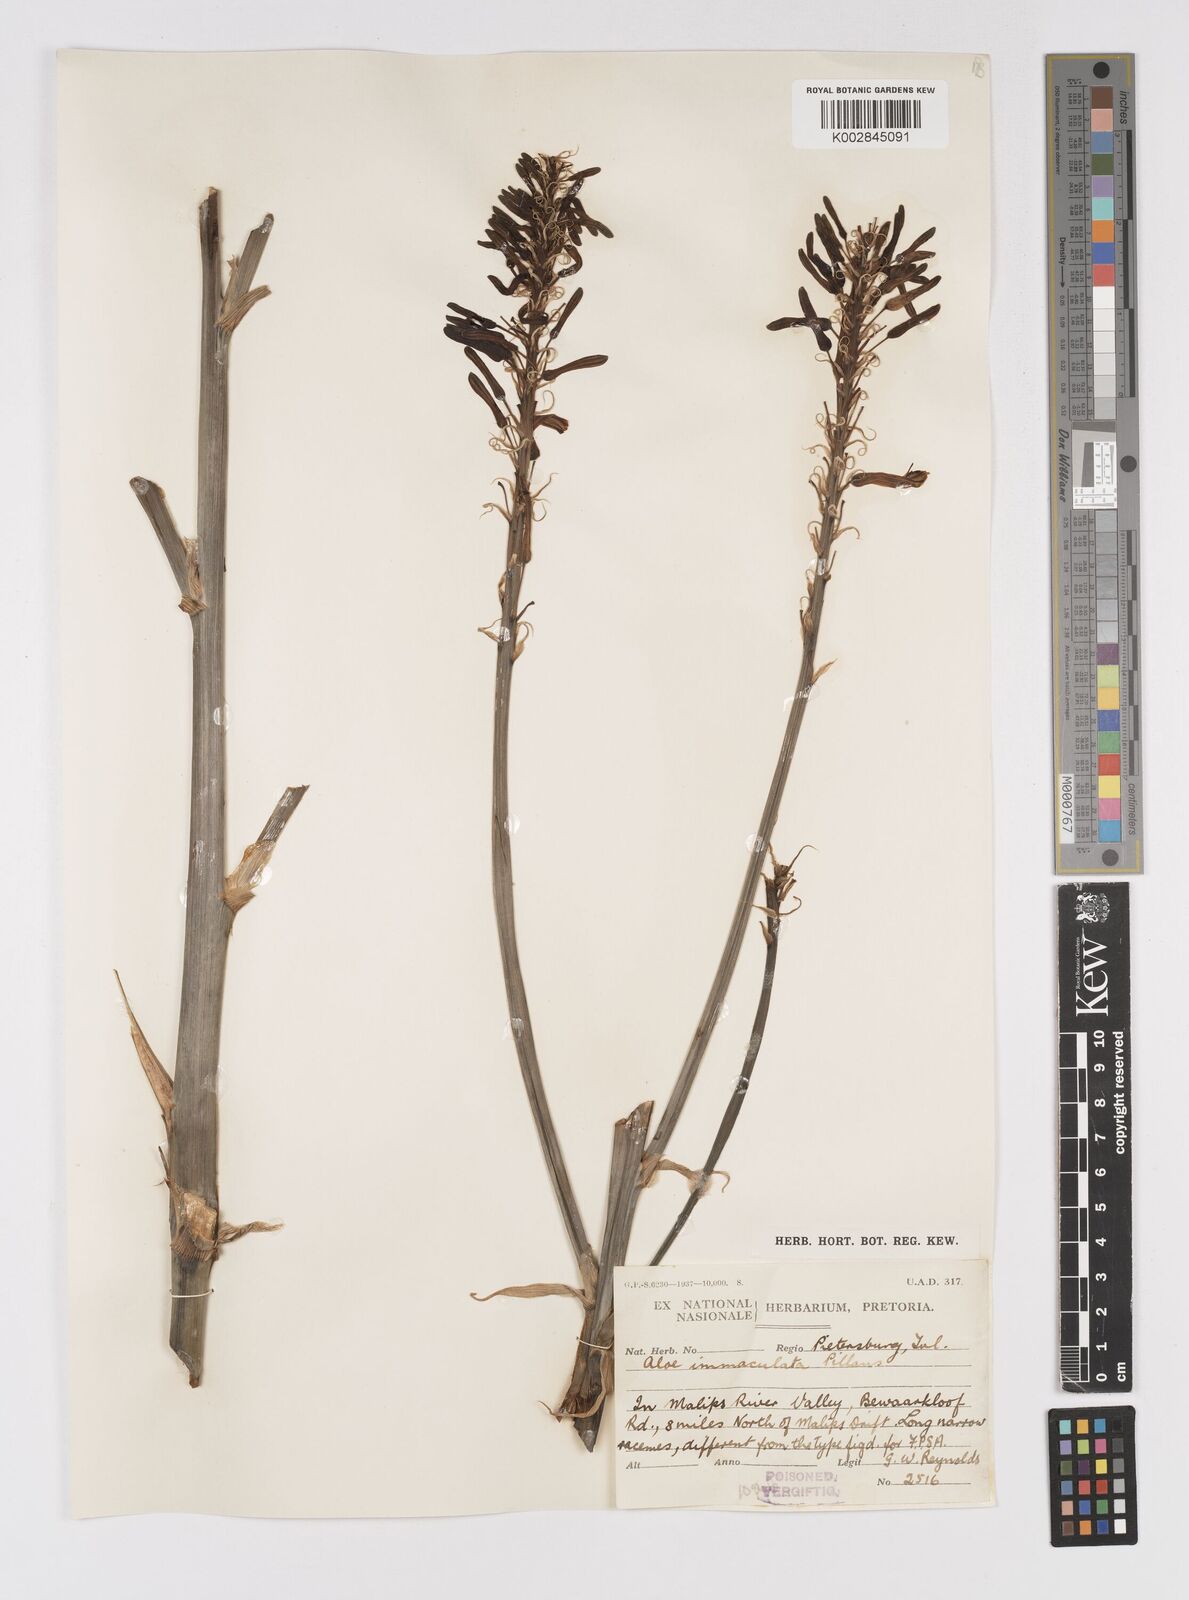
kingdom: Plantae
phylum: Tracheophyta
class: Liliopsida
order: Asparagales
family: Asphodelaceae
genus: Aloe
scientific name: Aloe immaculata
